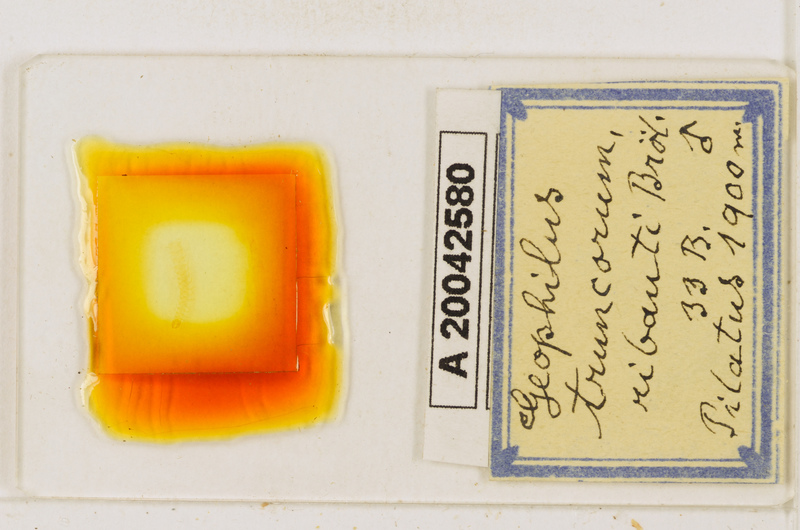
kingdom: Animalia
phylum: Arthropoda
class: Chilopoda
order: Geophilomorpha
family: Geophilidae
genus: Geophilus
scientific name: Geophilus ribauti
